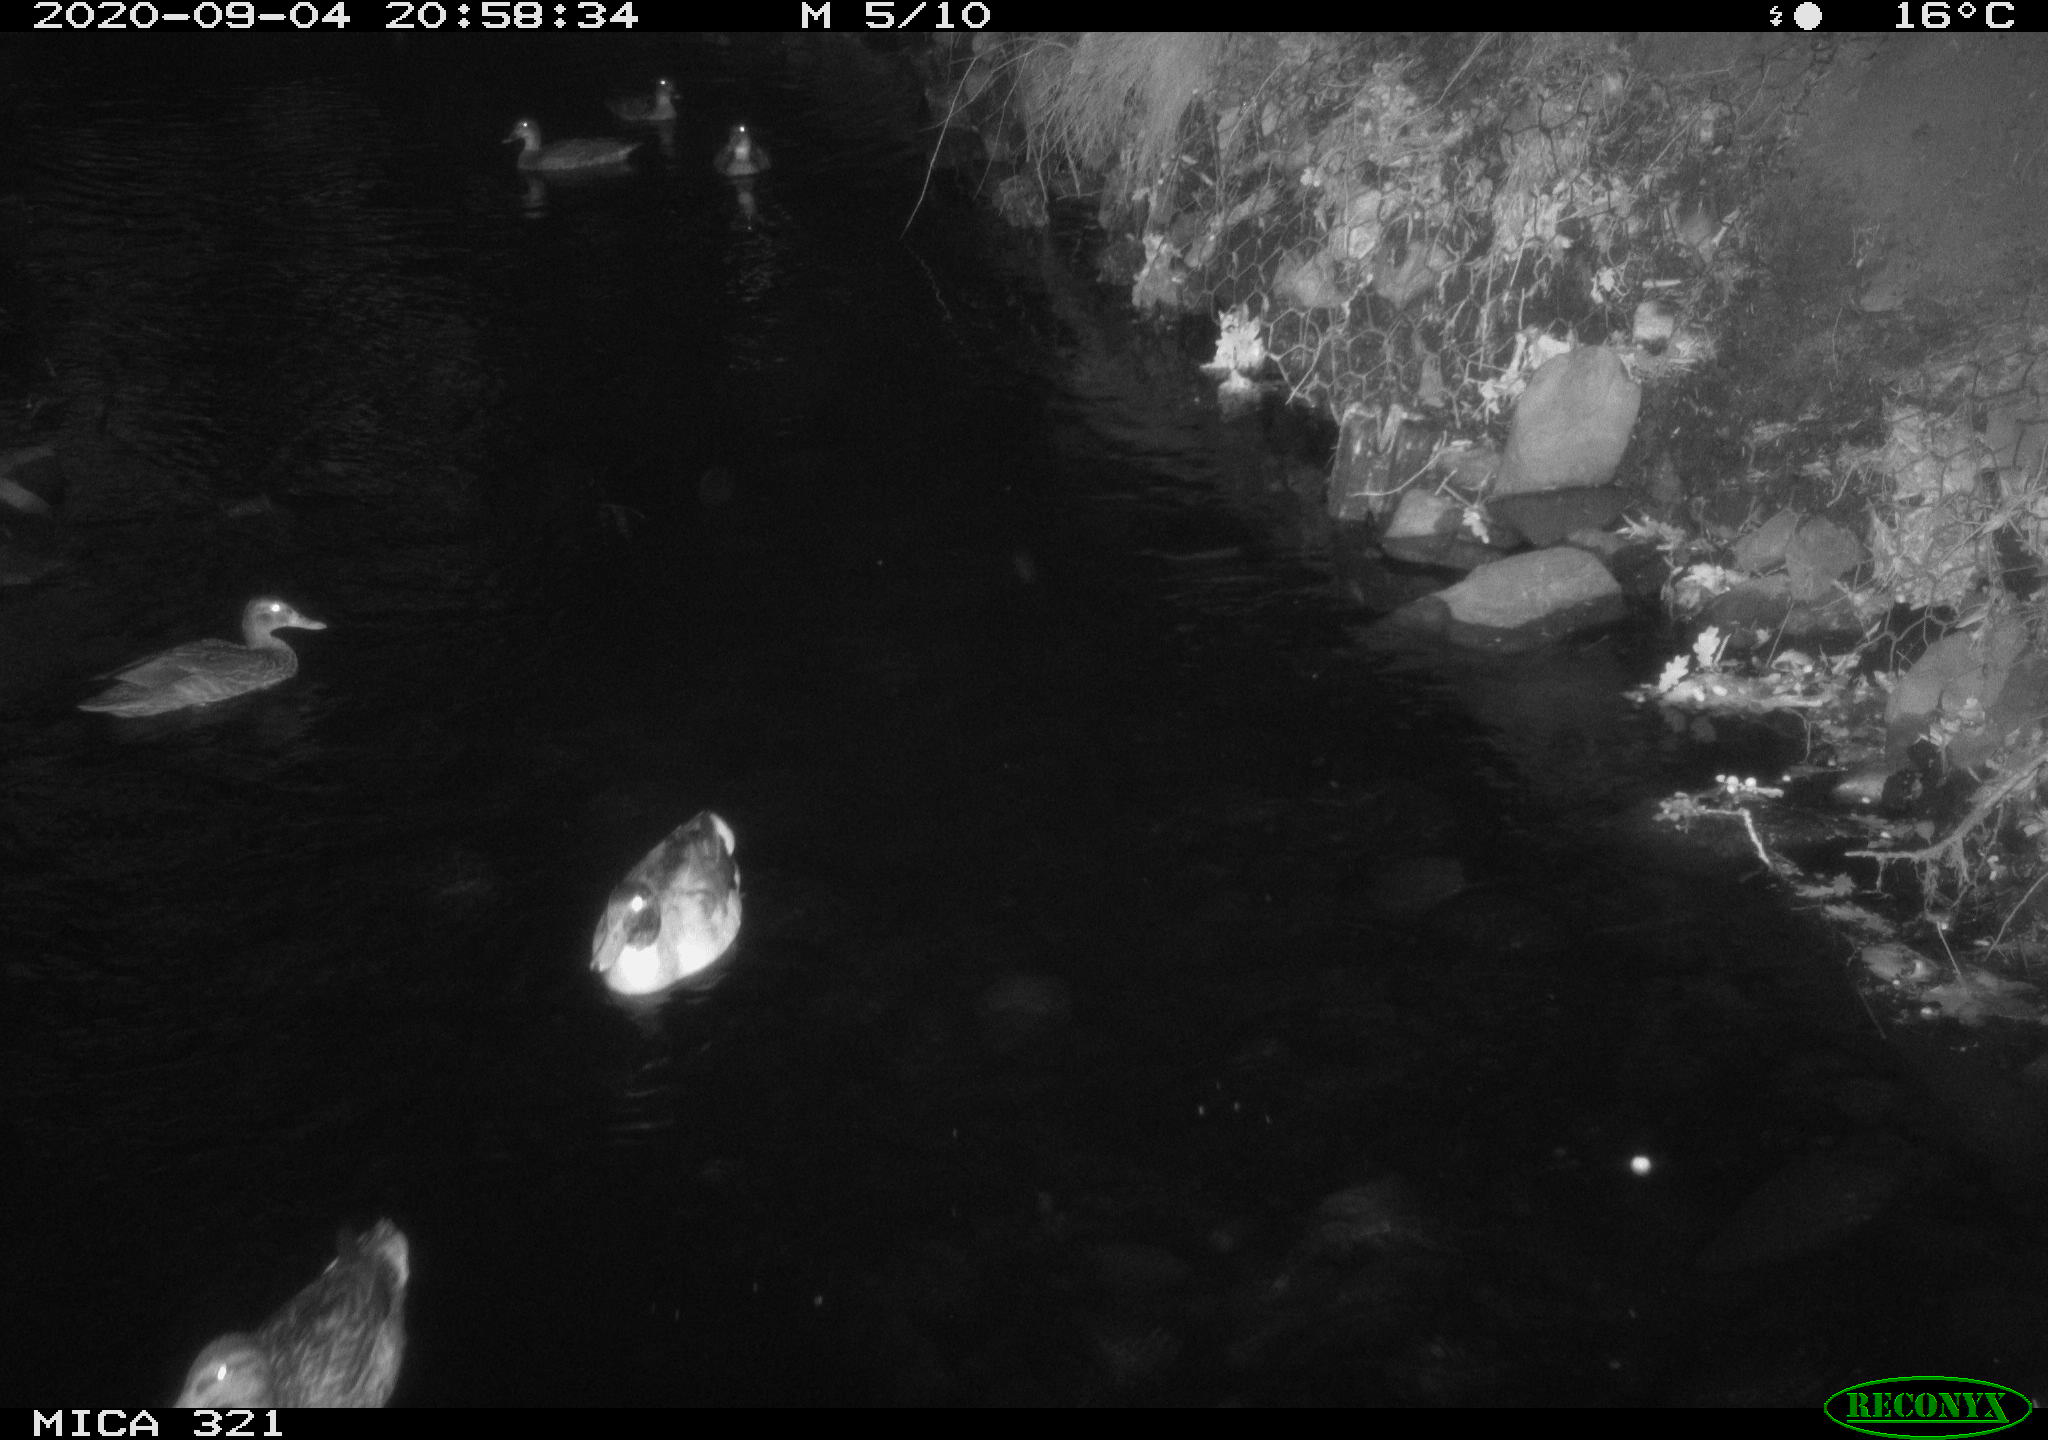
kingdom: Animalia
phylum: Chordata
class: Aves
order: Anseriformes
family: Anatidae
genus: Anas
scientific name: Anas platyrhynchos
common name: Mallard
